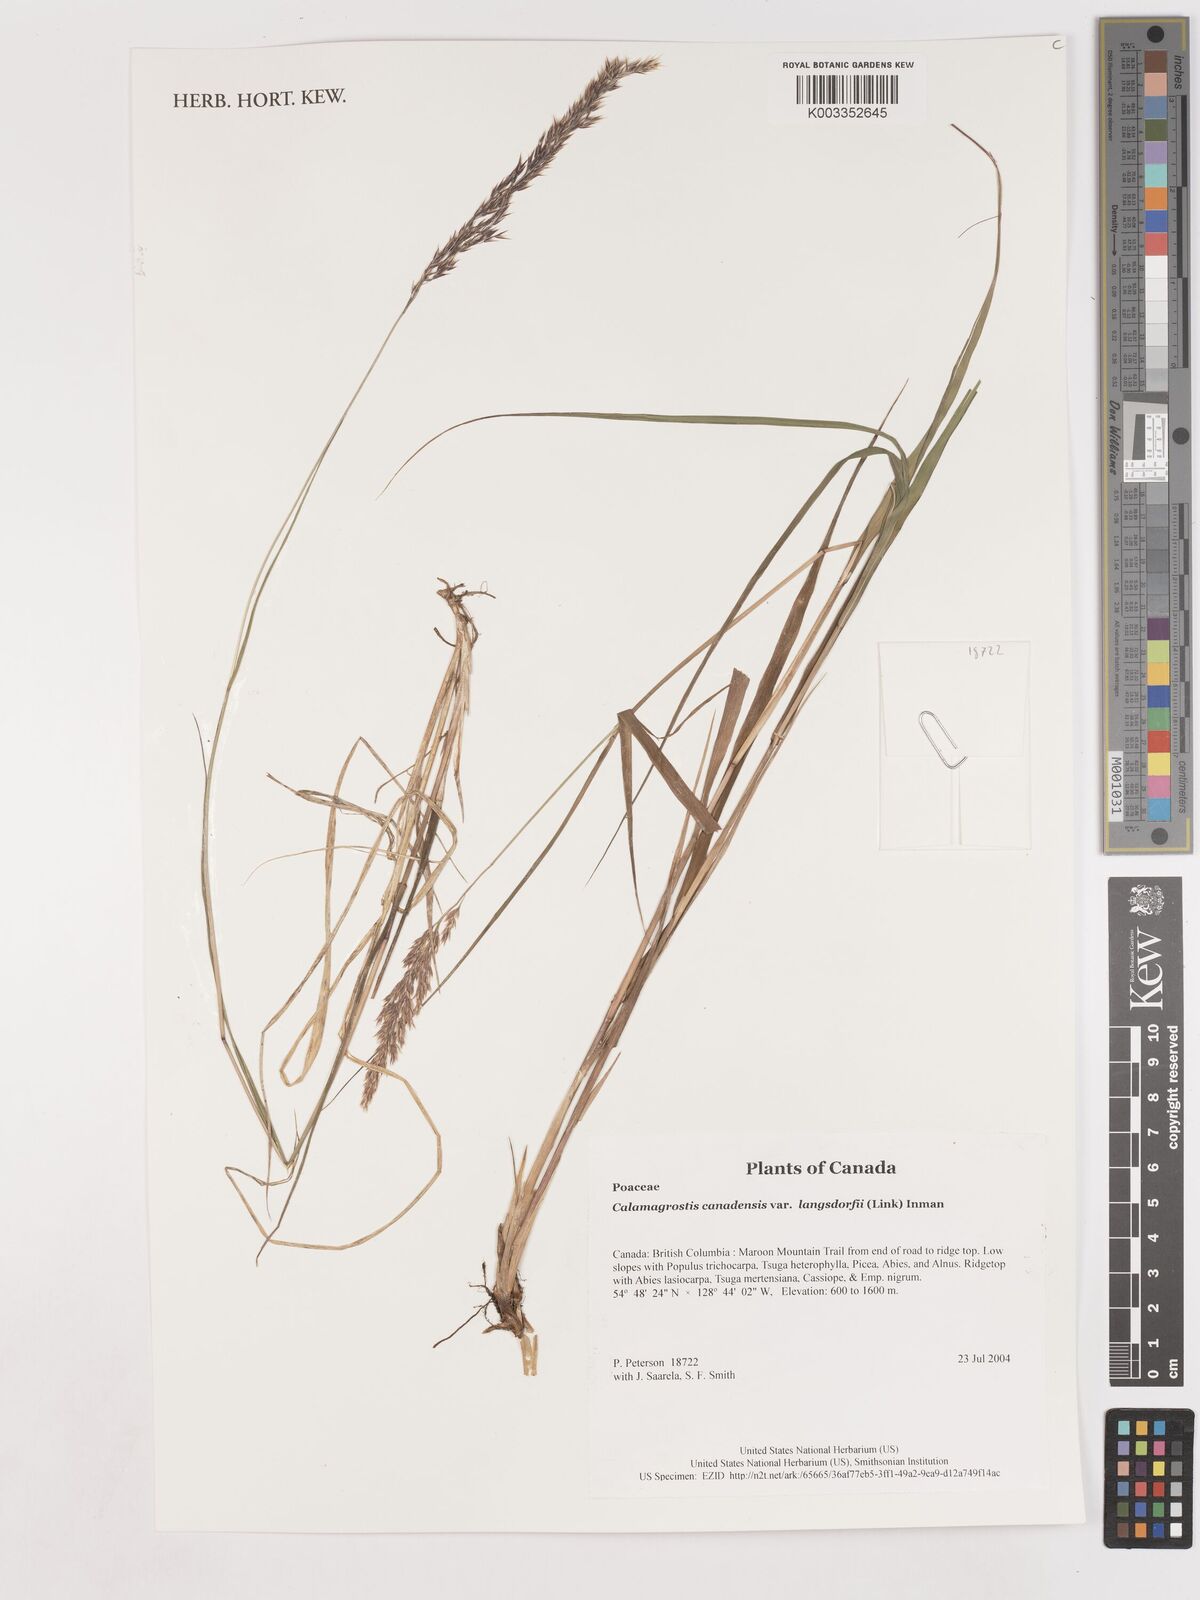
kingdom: Plantae
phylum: Tracheophyta
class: Liliopsida
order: Poales
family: Poaceae
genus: Calamagrostis
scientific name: Calamagrostis canadensis
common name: Canada bluejoint
